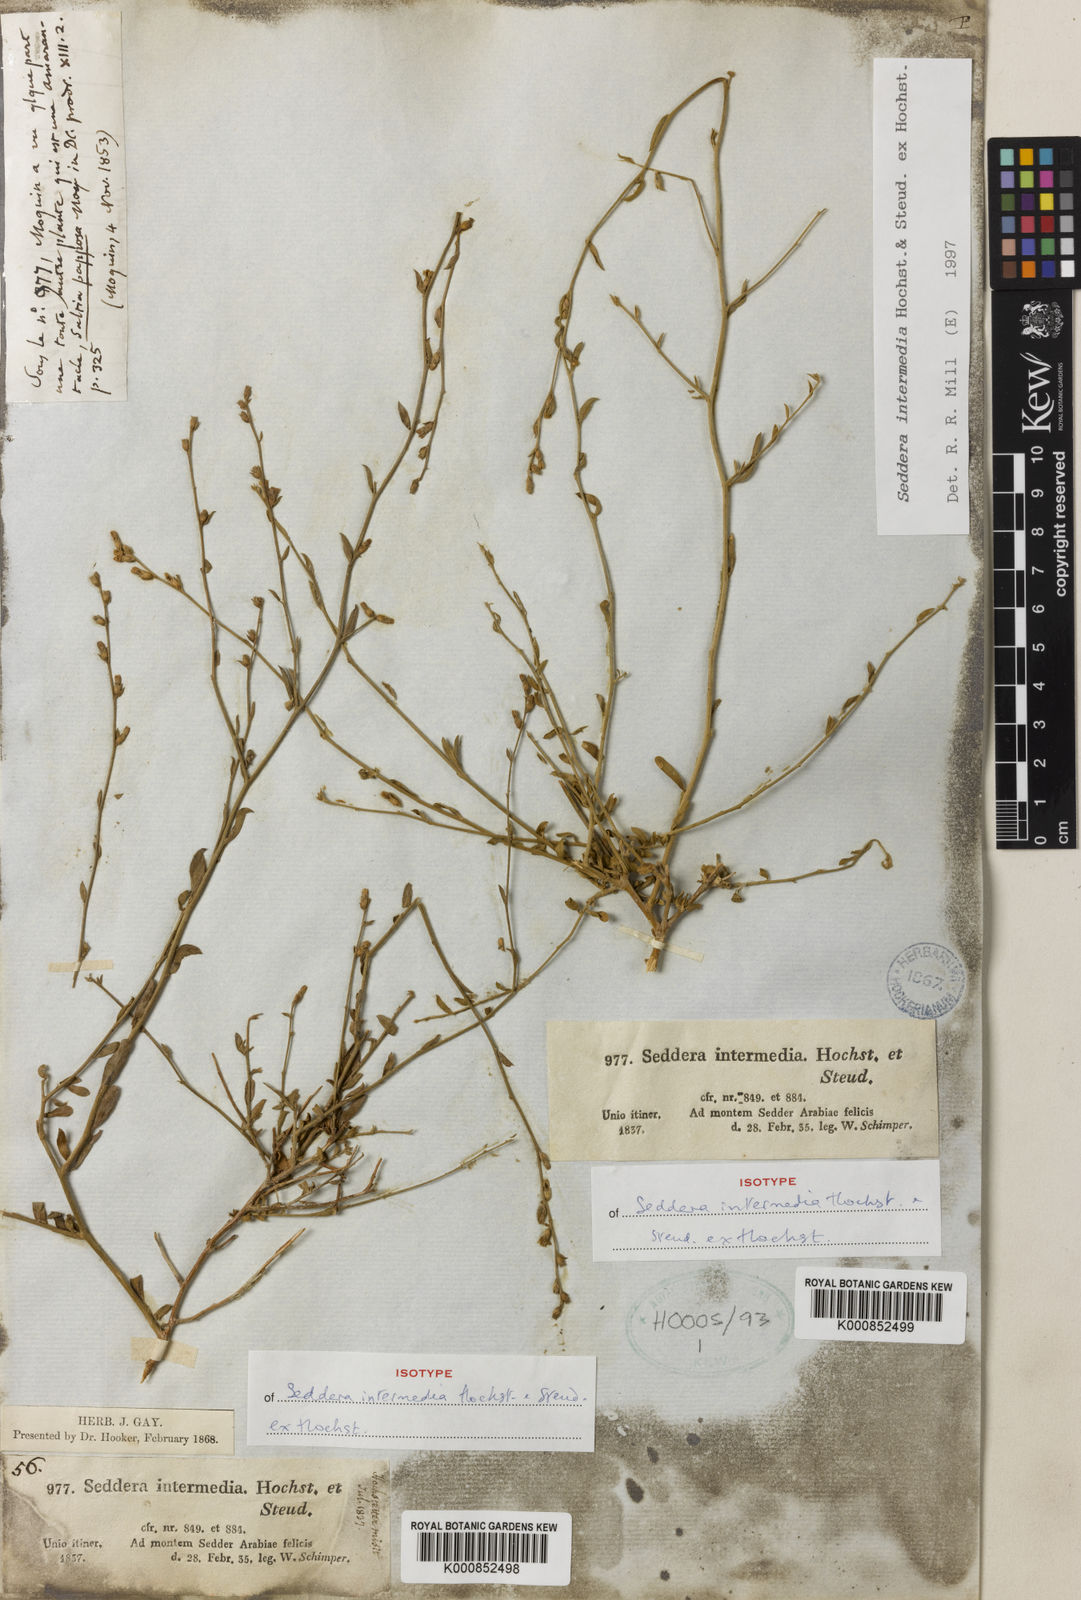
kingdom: Plantae
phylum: Tracheophyta
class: Magnoliopsida
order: Solanales
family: Convolvulaceae
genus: Seddera
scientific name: Seddera intermedia
